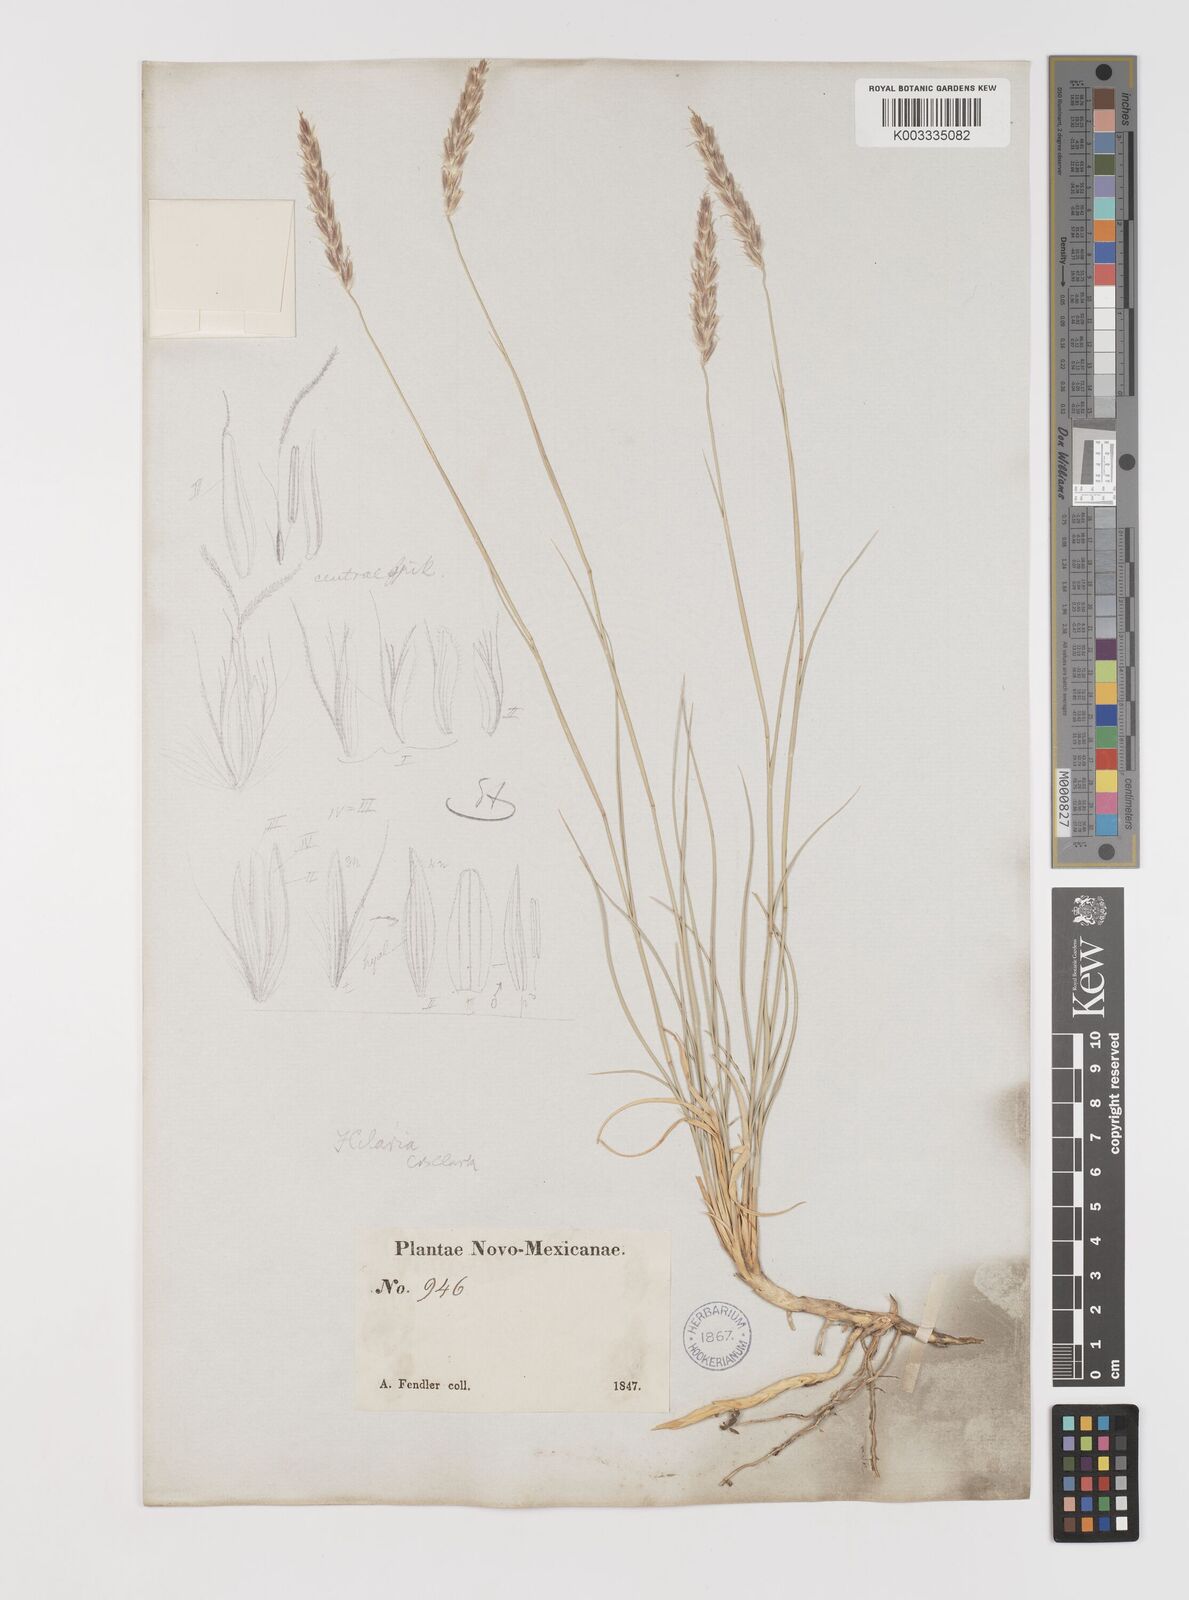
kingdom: Plantae
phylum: Tracheophyta
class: Liliopsida
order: Poales
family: Poaceae
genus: Hilaria
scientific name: Hilaria jamesii
